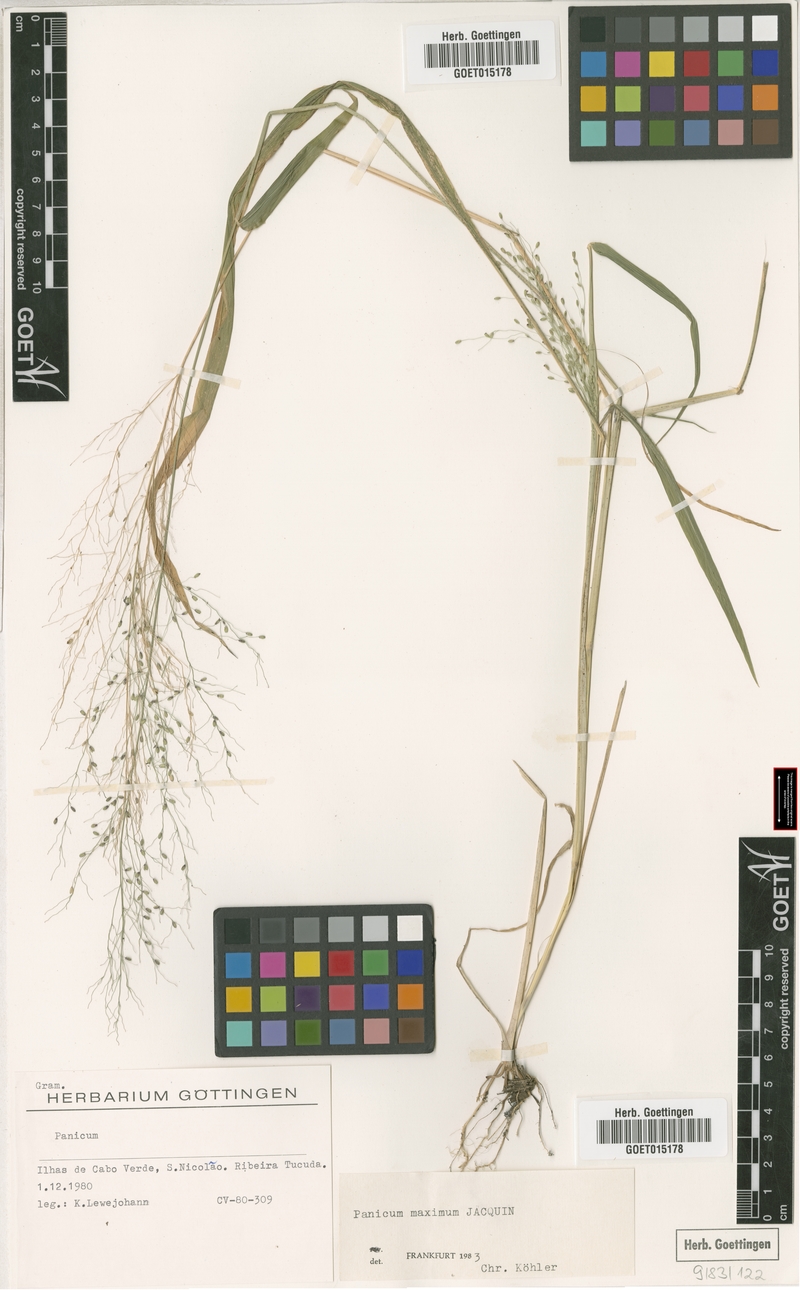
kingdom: Plantae
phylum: Tracheophyta
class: Liliopsida
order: Poales
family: Poaceae
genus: Megathyrsus
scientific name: Megathyrsus maximus
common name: Guineagrass
